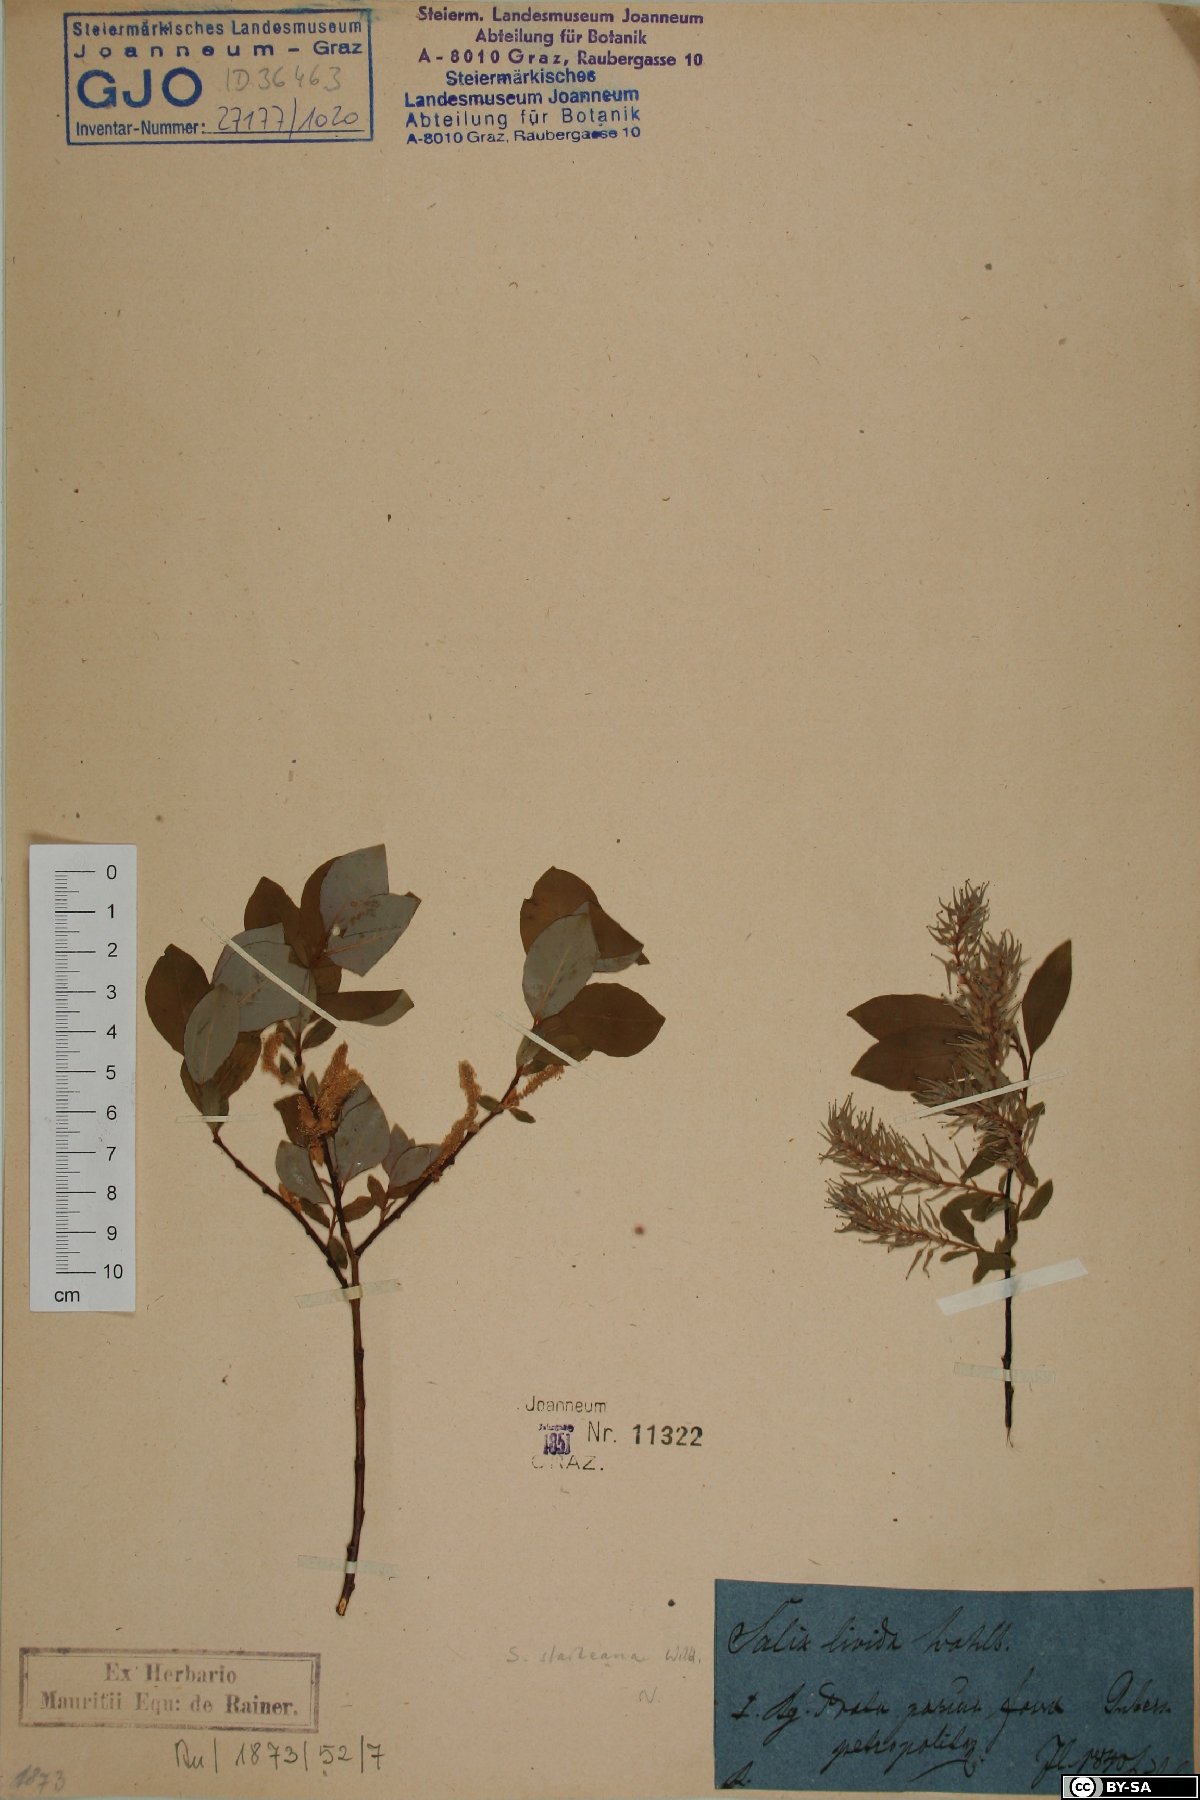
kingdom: Plantae
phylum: Tracheophyta
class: Magnoliopsida
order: Malpighiales
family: Salicaceae
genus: Salix
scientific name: Salix starkeana
